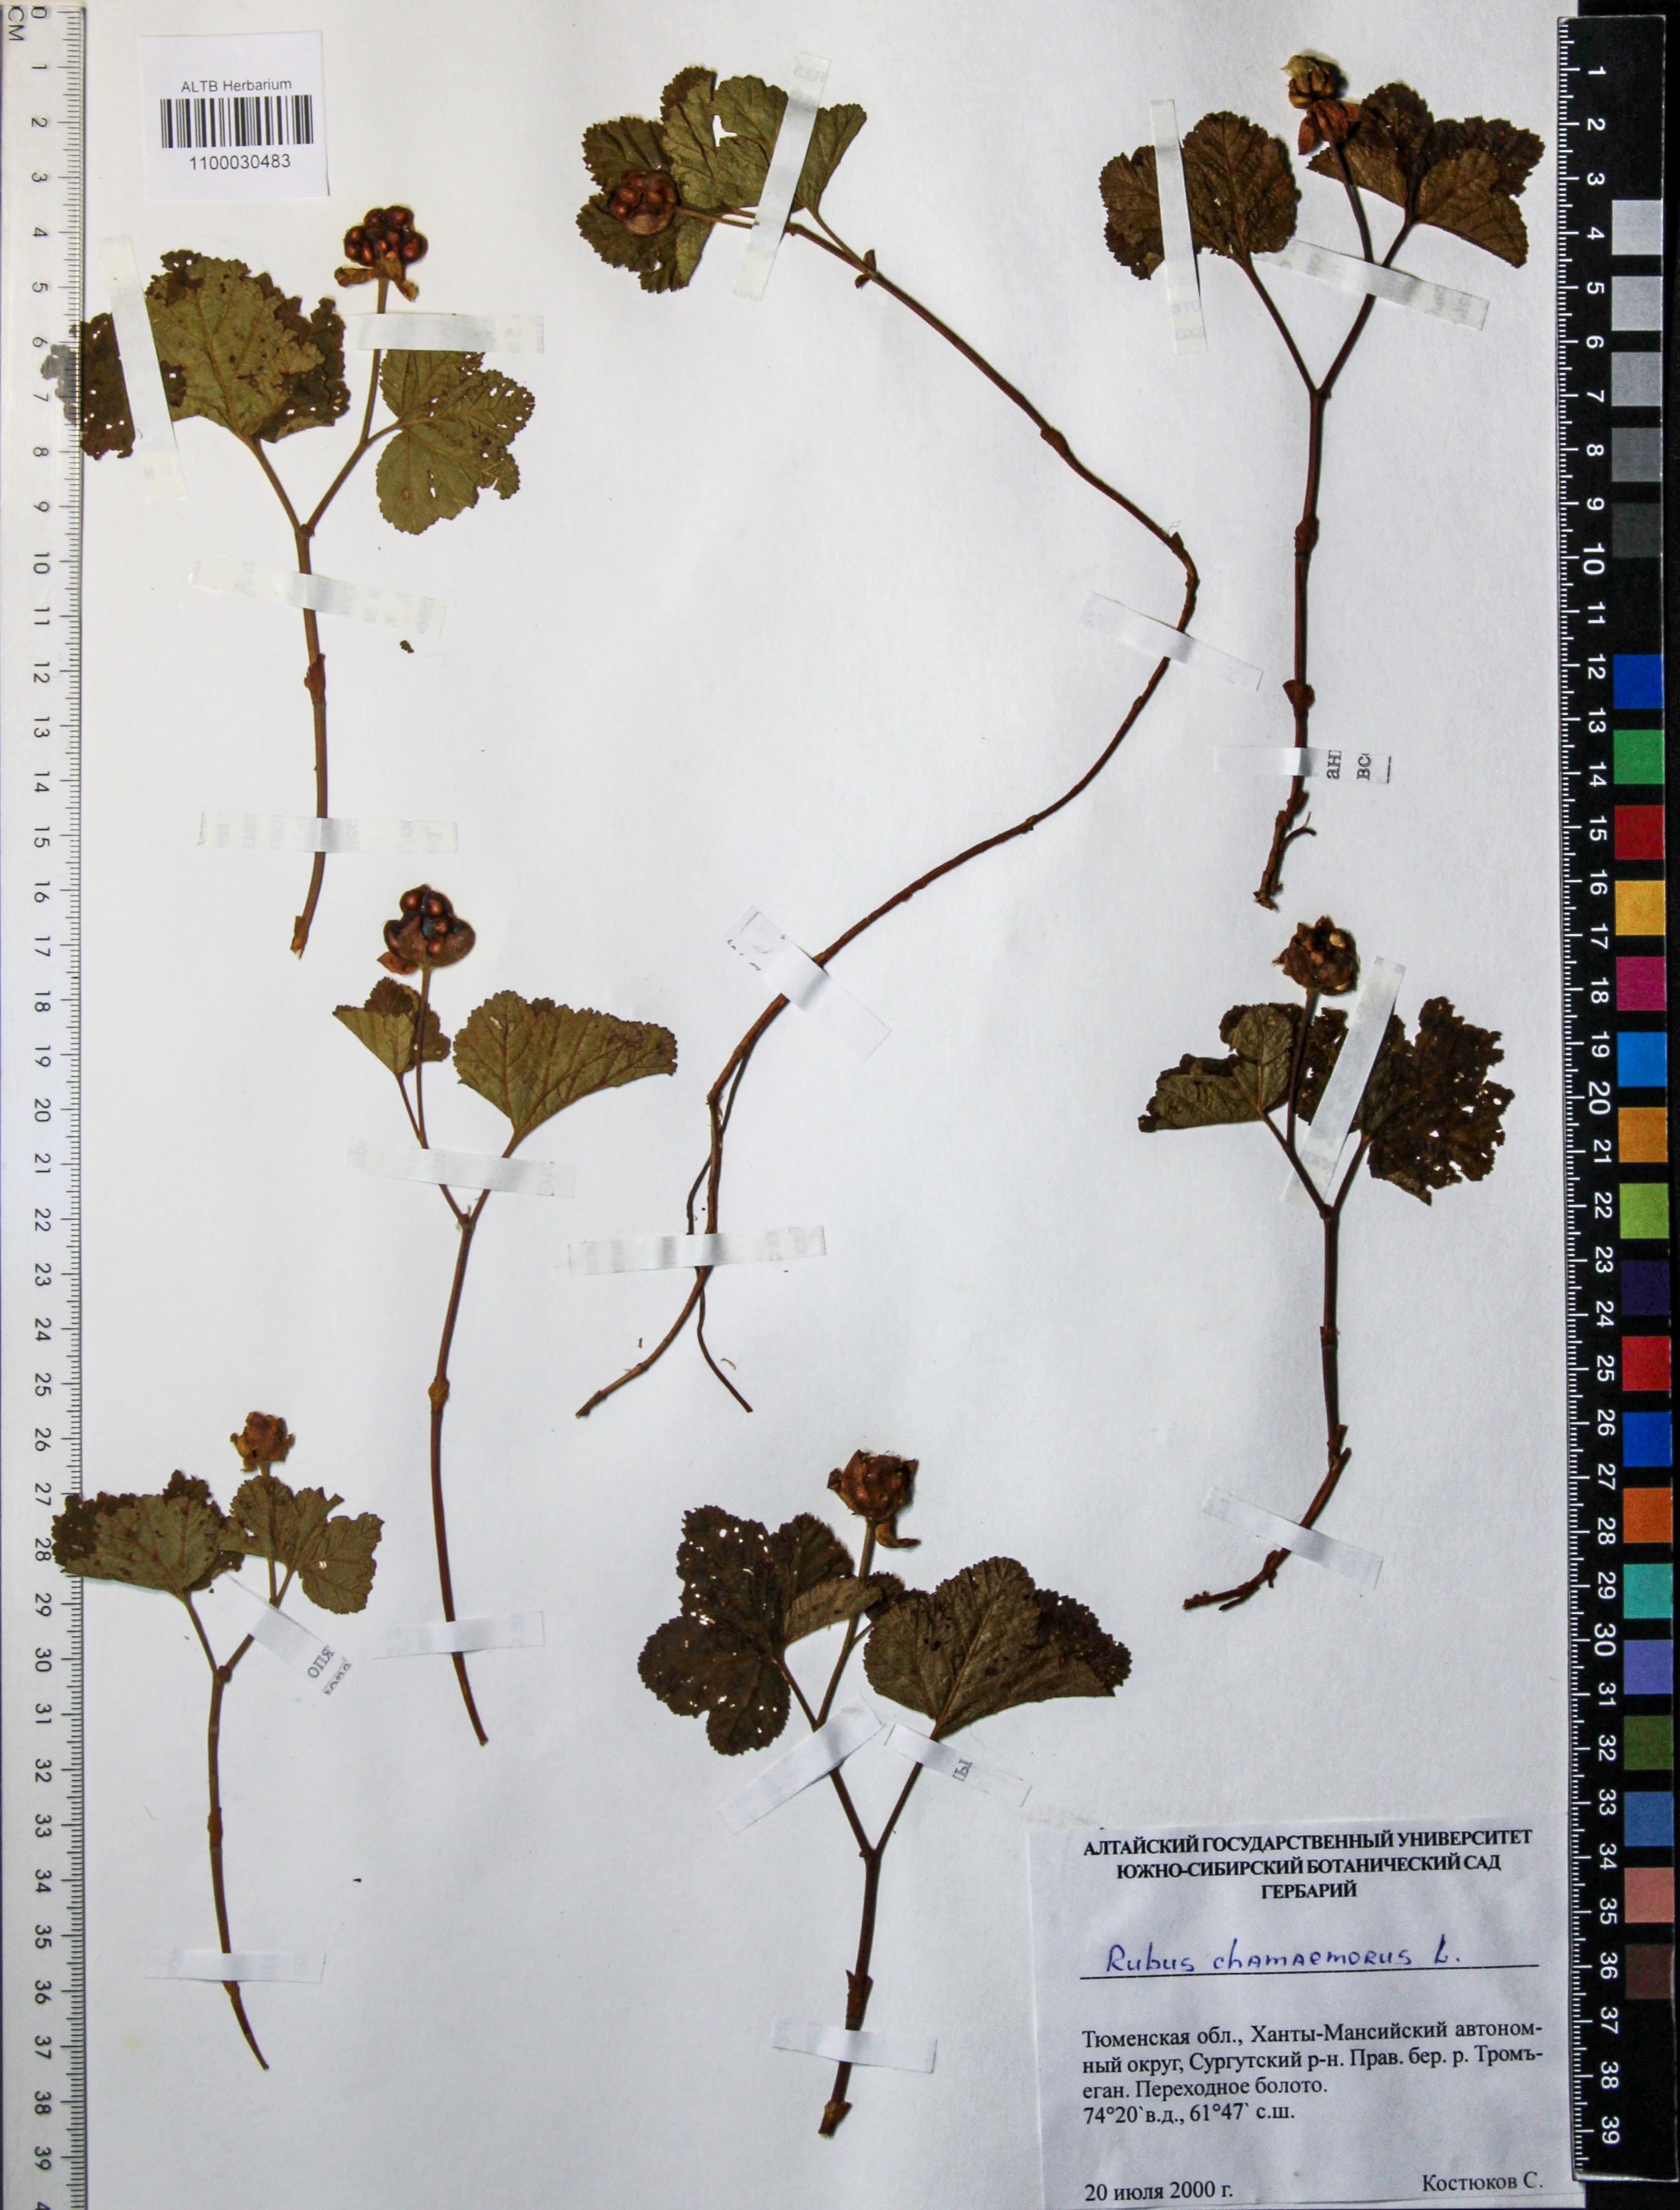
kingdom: Plantae
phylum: Tracheophyta
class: Magnoliopsida
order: Rosales
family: Rosaceae
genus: Rubus
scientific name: Rubus chamaemorus
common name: Cloudberry
